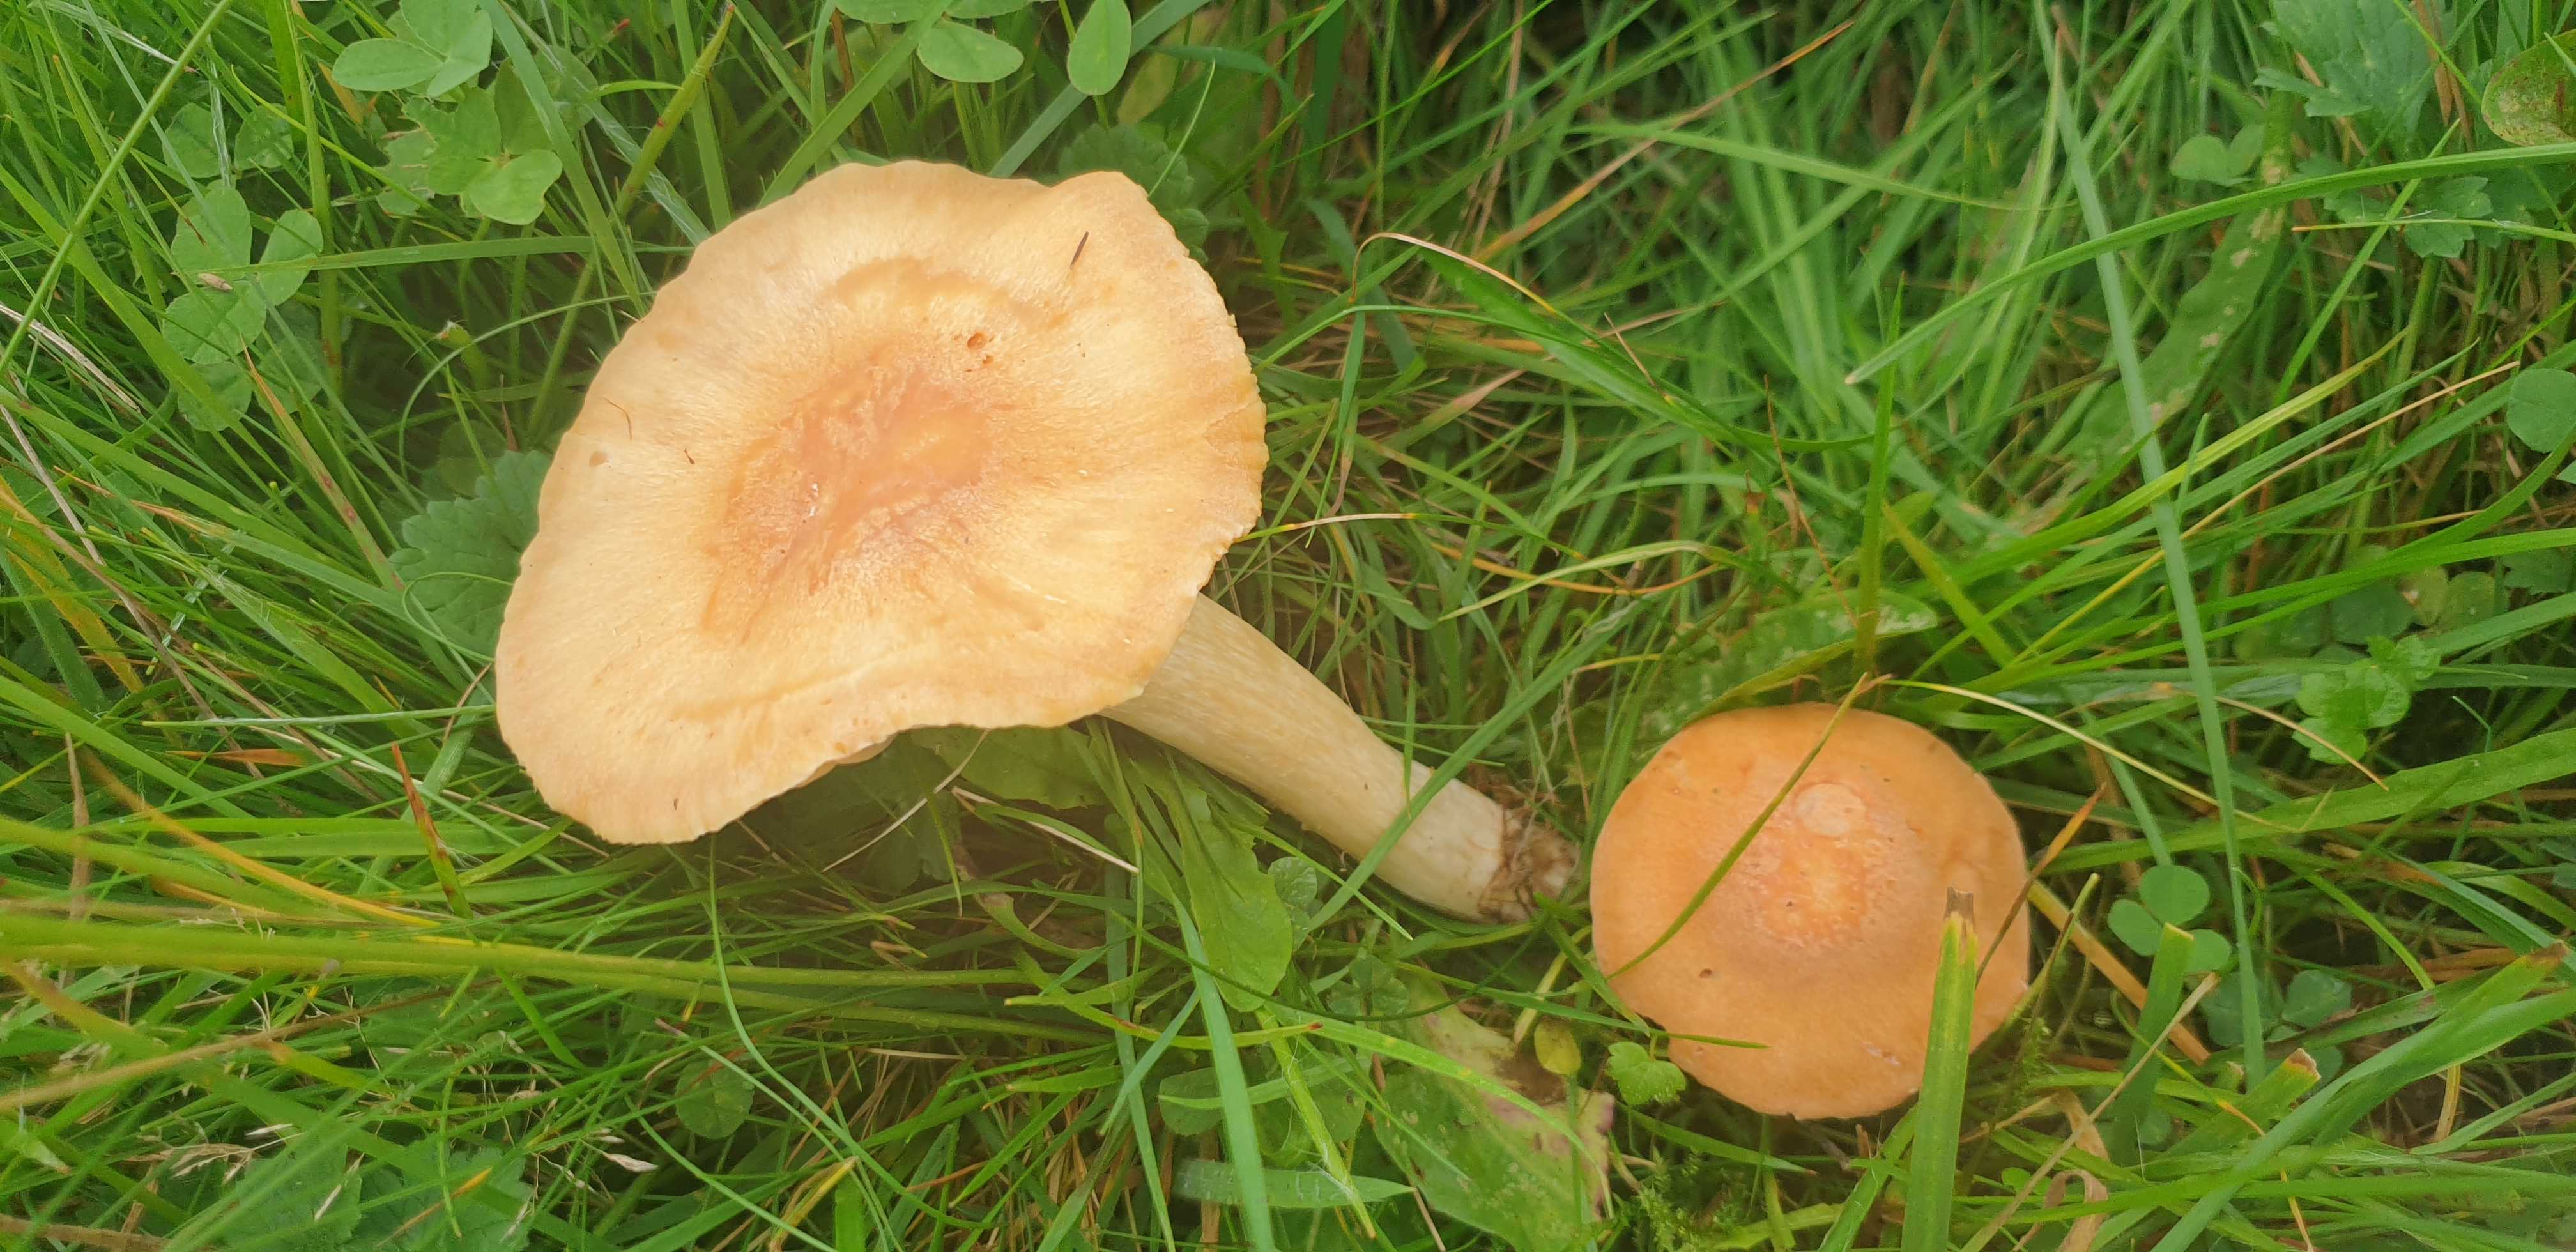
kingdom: Fungi
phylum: Basidiomycota
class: Agaricomycetes
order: Agaricales
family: Hygrophoraceae
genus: Cuphophyllus
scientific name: Cuphophyllus pratensis
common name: eng-vokshat
